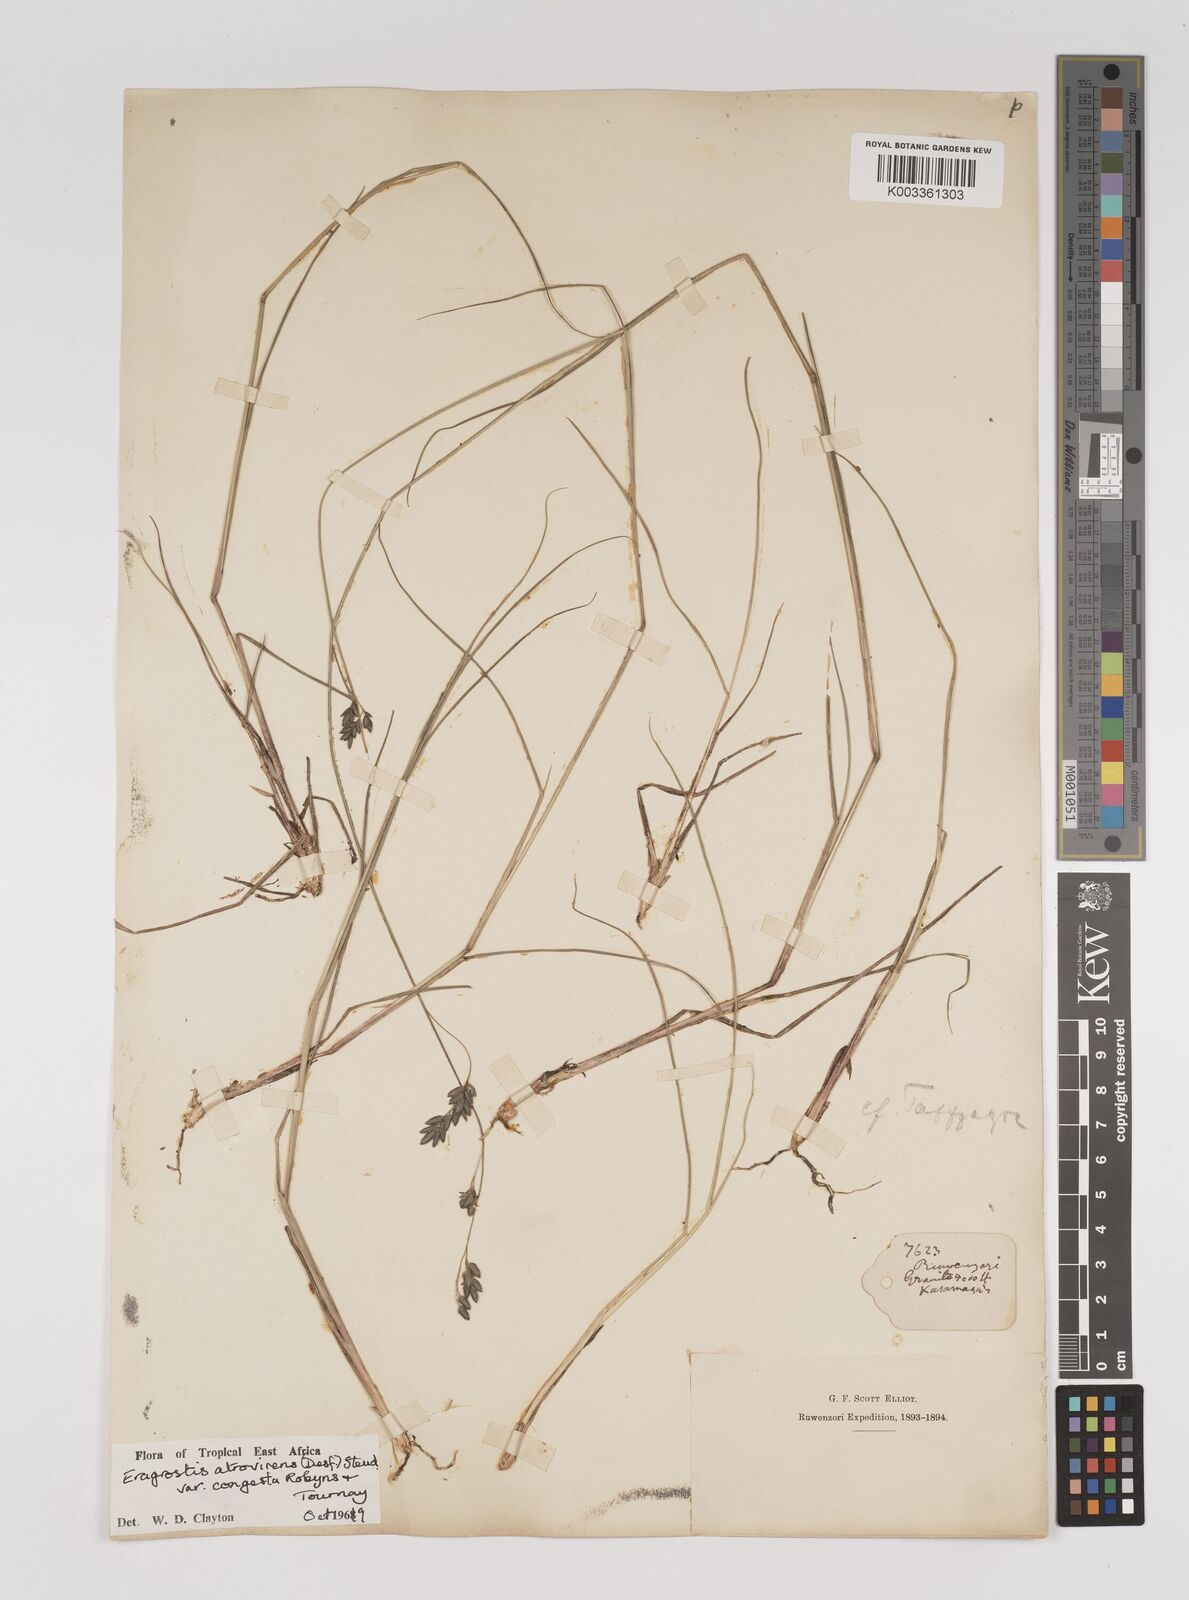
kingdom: Plantae
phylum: Tracheophyta
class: Liliopsida
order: Poales
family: Poaceae
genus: Eragrostis
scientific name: Eragrostis botryodes
